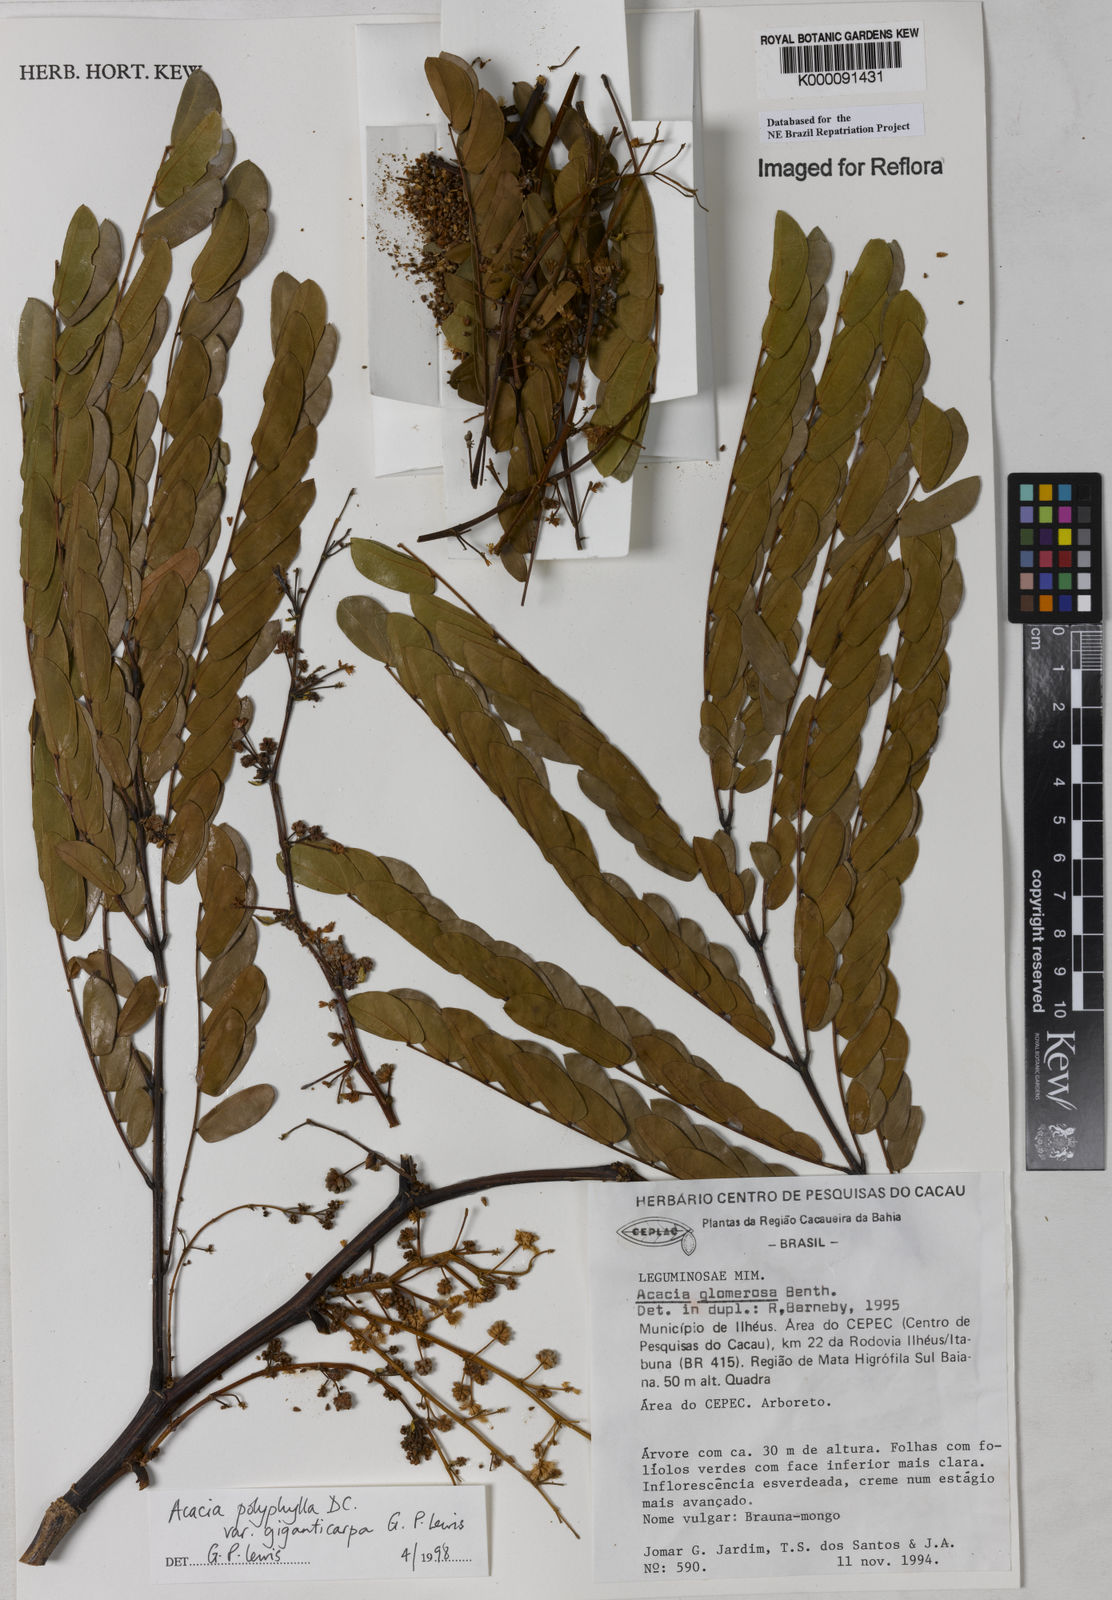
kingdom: Plantae
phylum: Tracheophyta
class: Magnoliopsida
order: Fabales
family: Fabaceae
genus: Senegalia
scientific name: Senegalia giganticarpa
